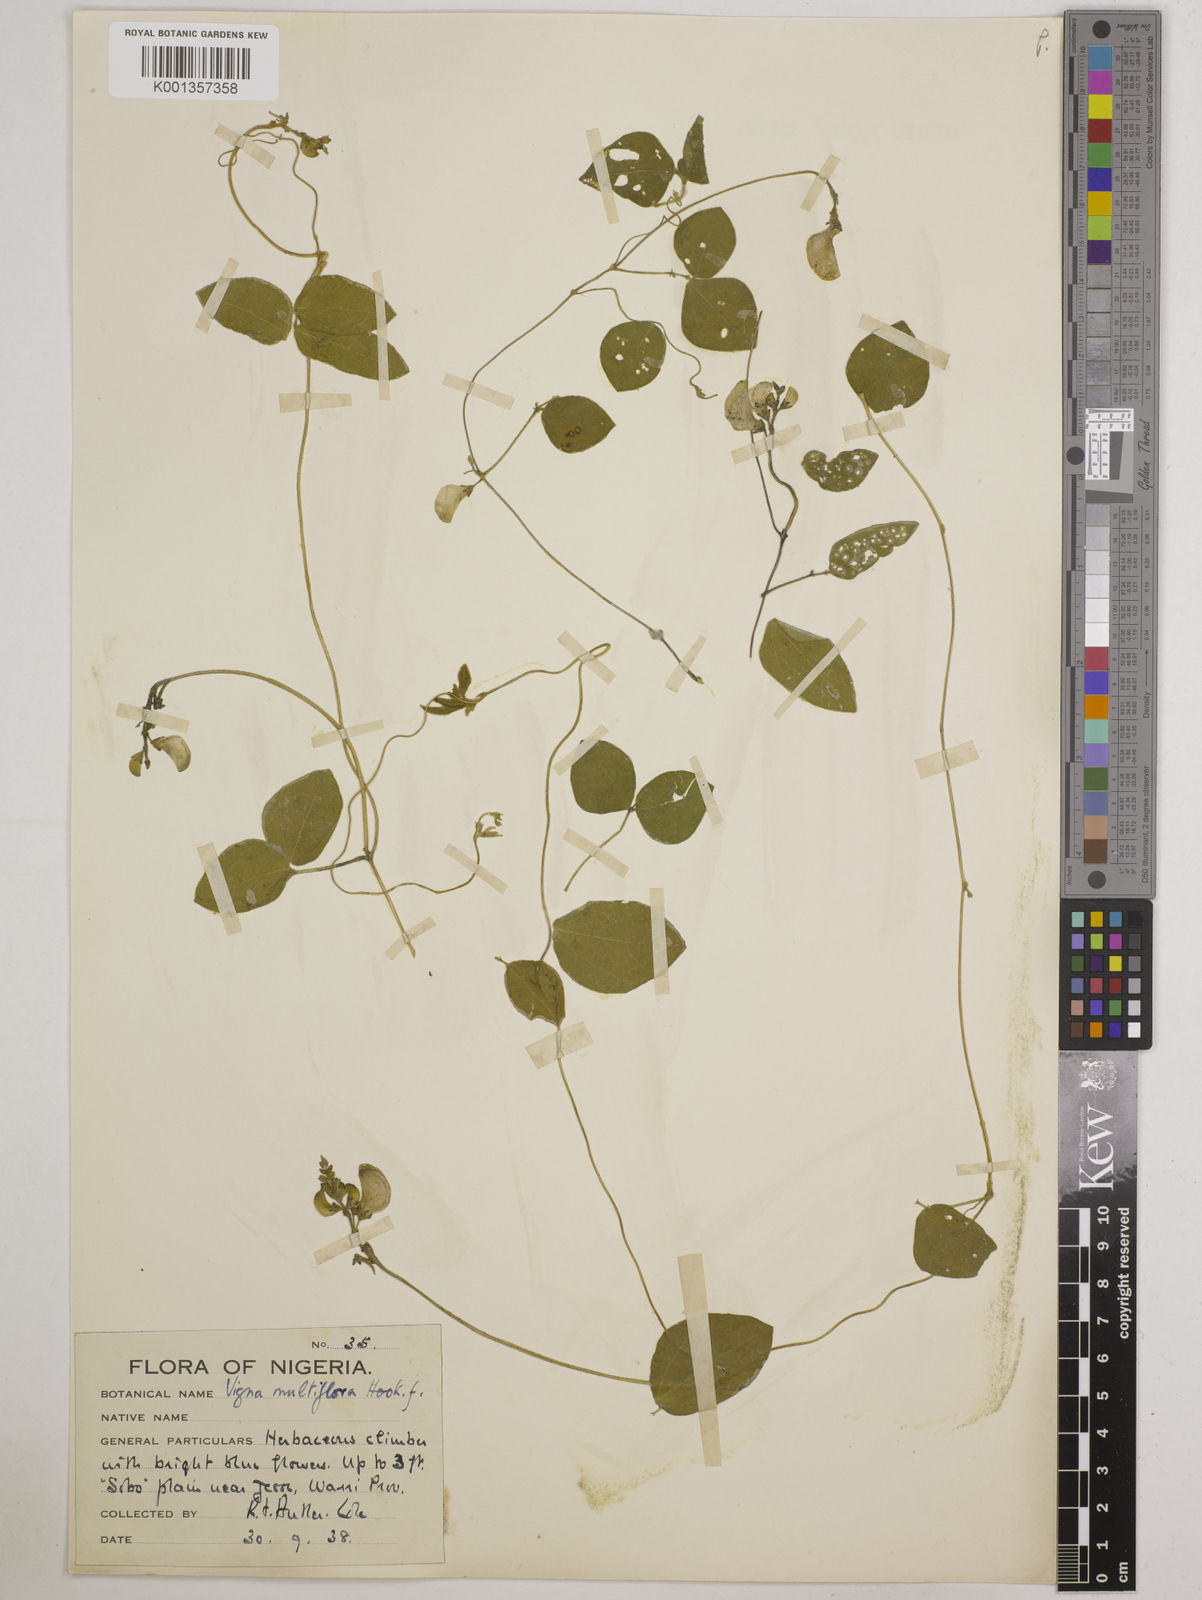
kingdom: Plantae
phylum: Tracheophyta
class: Magnoliopsida
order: Fabales
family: Fabaceae
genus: Vigna
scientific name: Vigna gracilis
